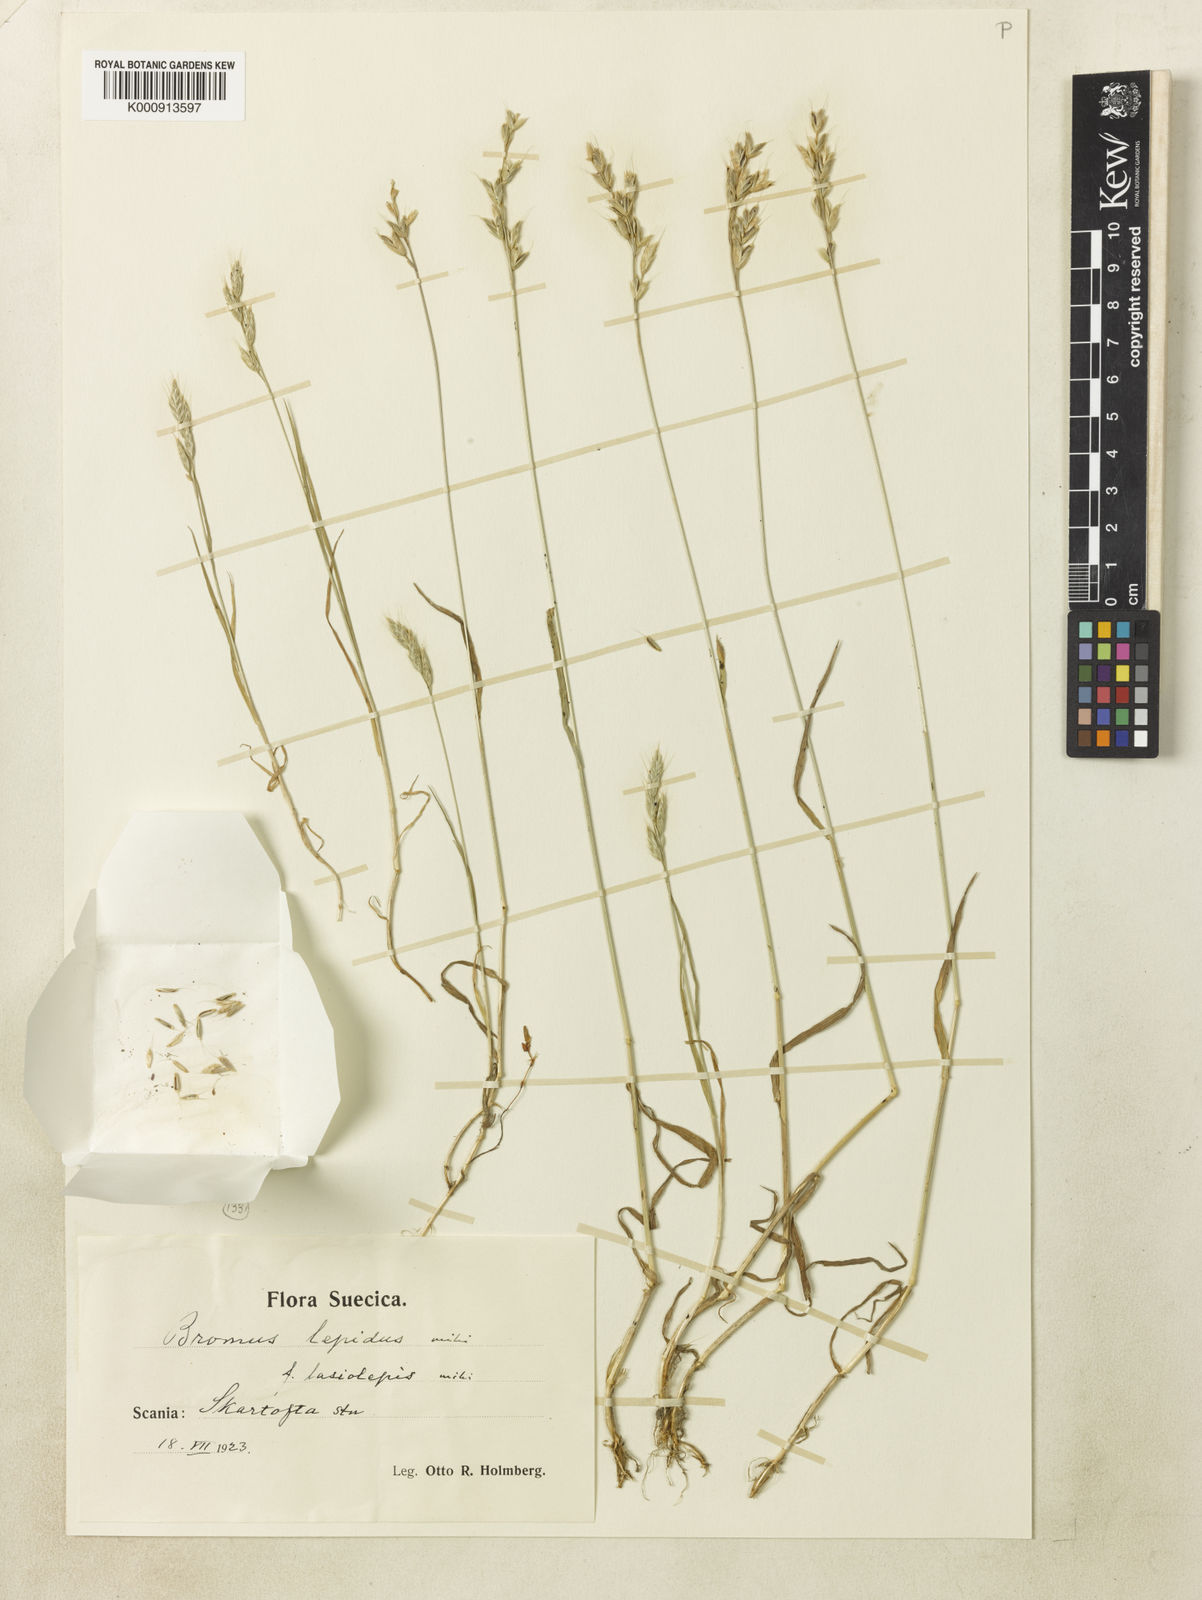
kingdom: Plantae
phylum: Tracheophyta
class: Liliopsida
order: Poales
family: Poaceae
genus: Bromus
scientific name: Bromus lepidus
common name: Slender soft-brome
